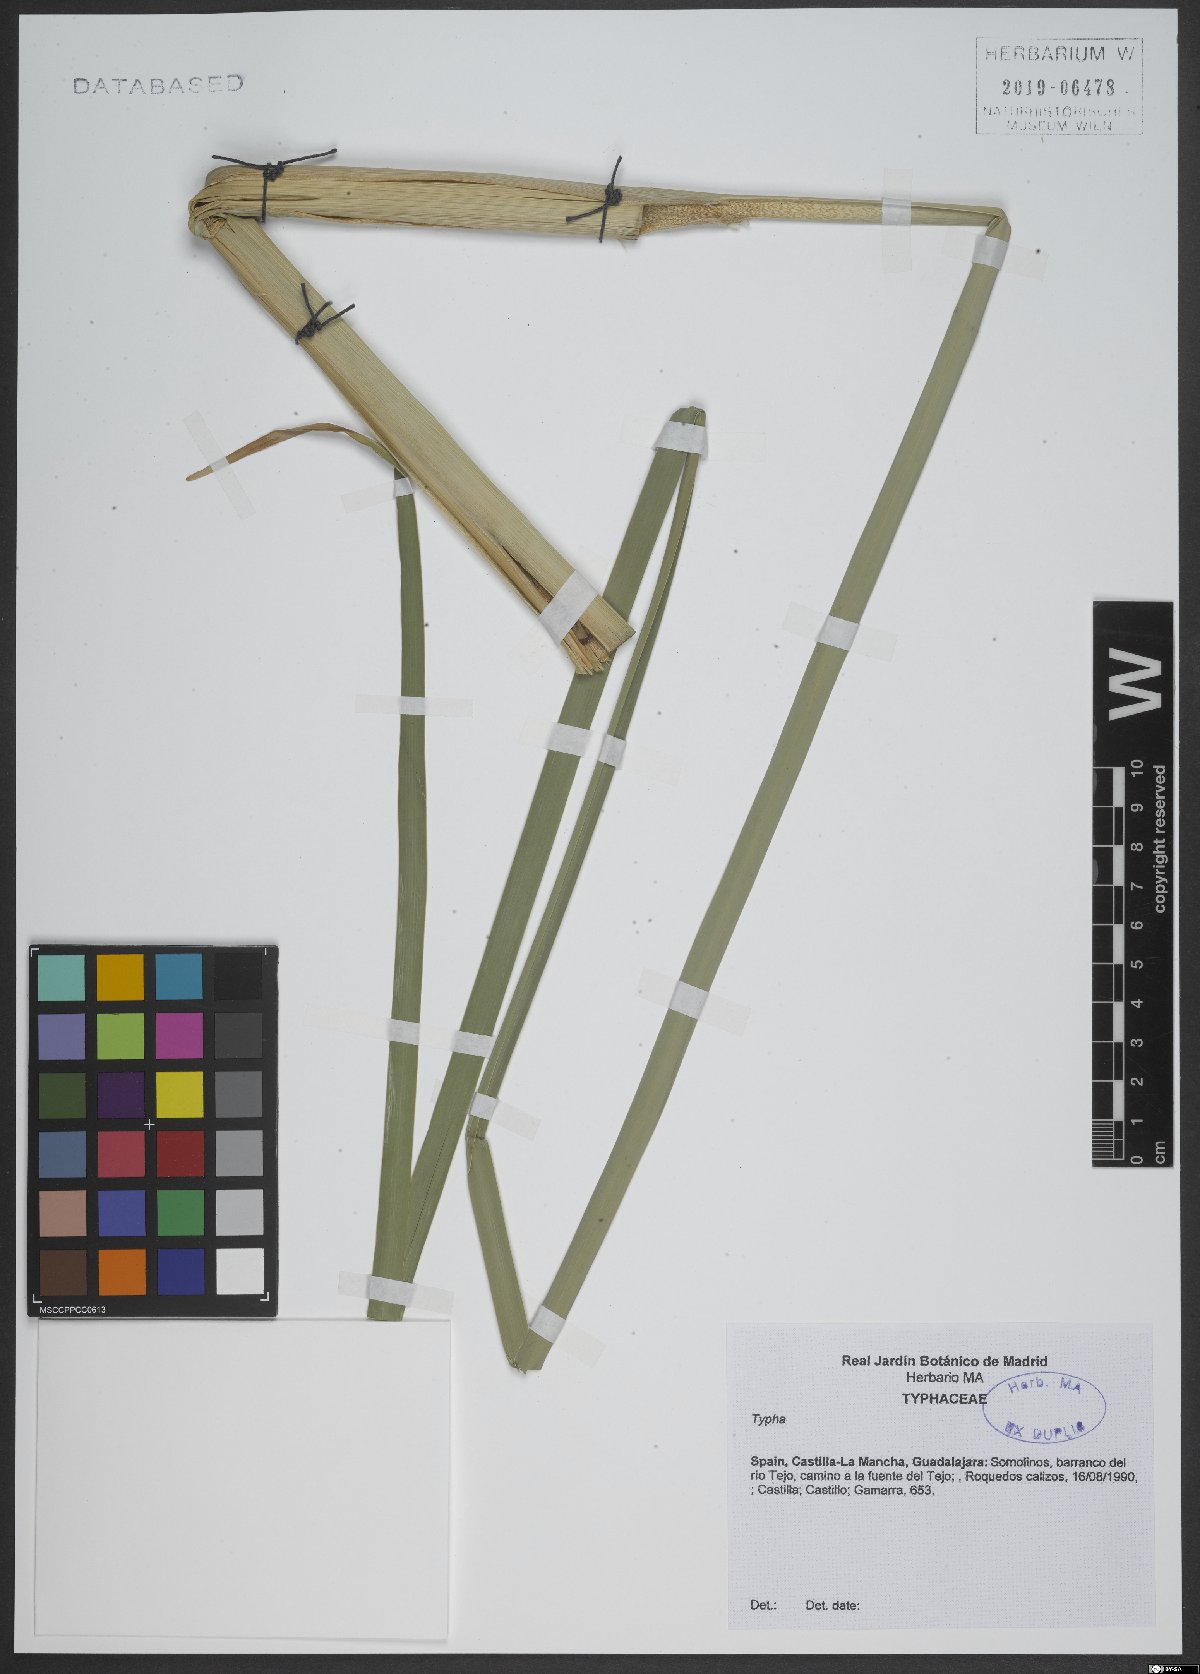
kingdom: Plantae
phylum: Tracheophyta
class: Liliopsida
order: Poales
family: Typhaceae
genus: Typha
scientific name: Typha
